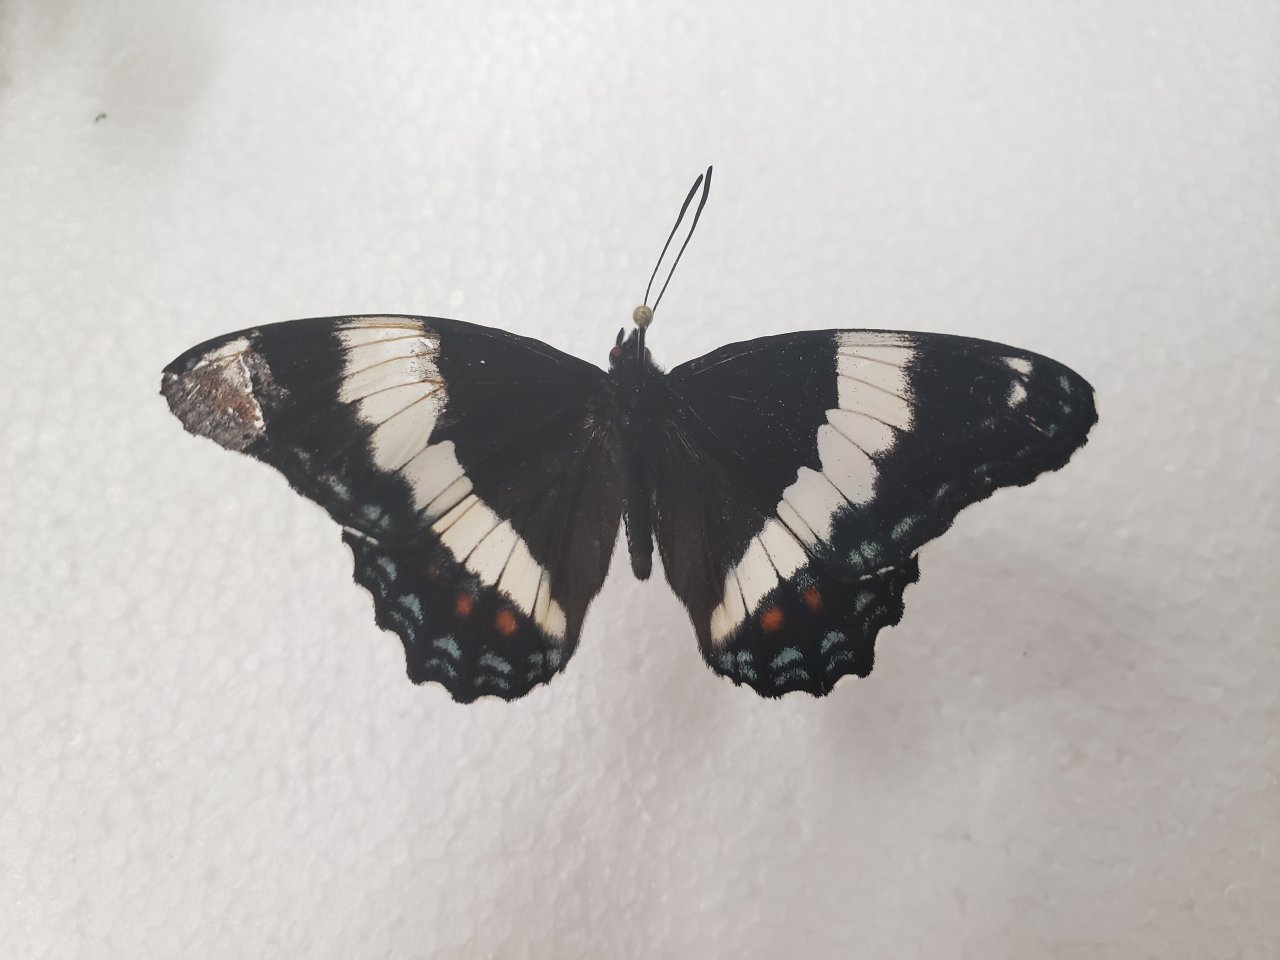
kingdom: Animalia
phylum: Arthropoda
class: Insecta
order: Lepidoptera
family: Nymphalidae
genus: Limenitis
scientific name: Limenitis arthemis
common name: Red-spotted Admiral
